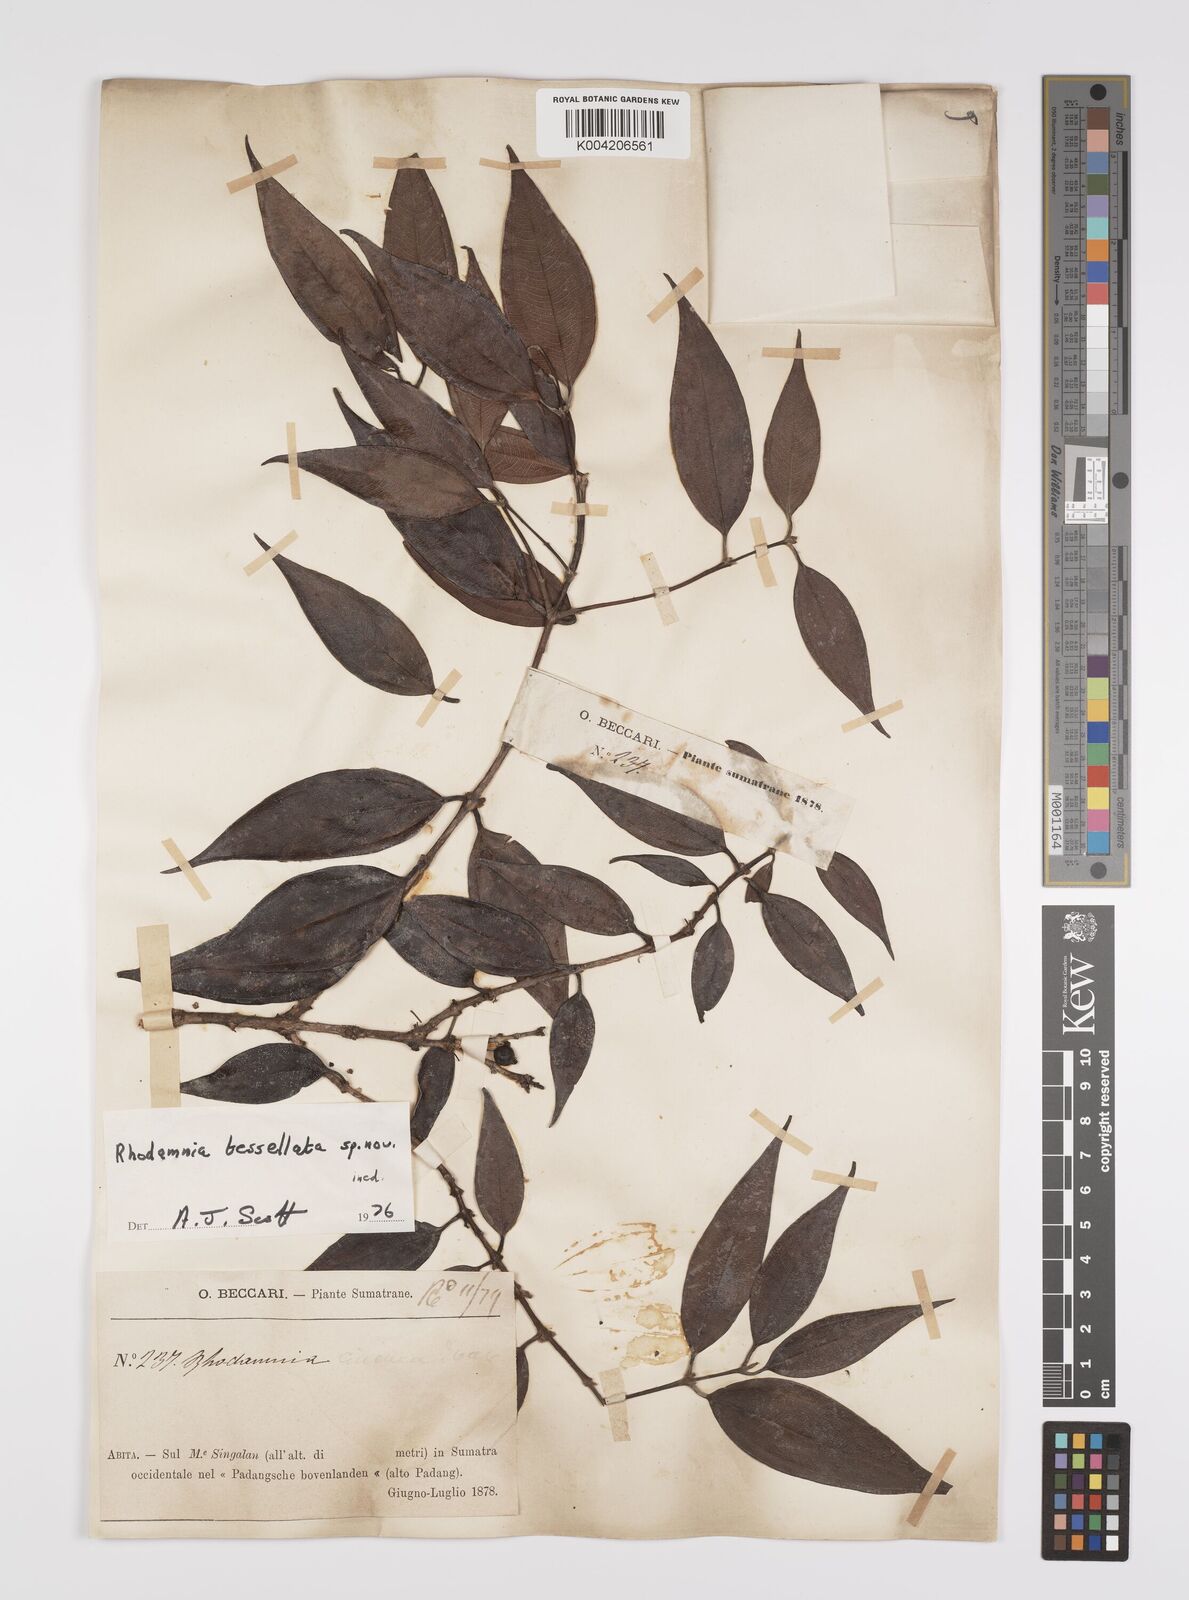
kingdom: Plantae
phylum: Tracheophyta
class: Magnoliopsida
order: Myrtales
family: Myrtaceae
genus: Rhodamnia
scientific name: Rhodamnia tessellata
